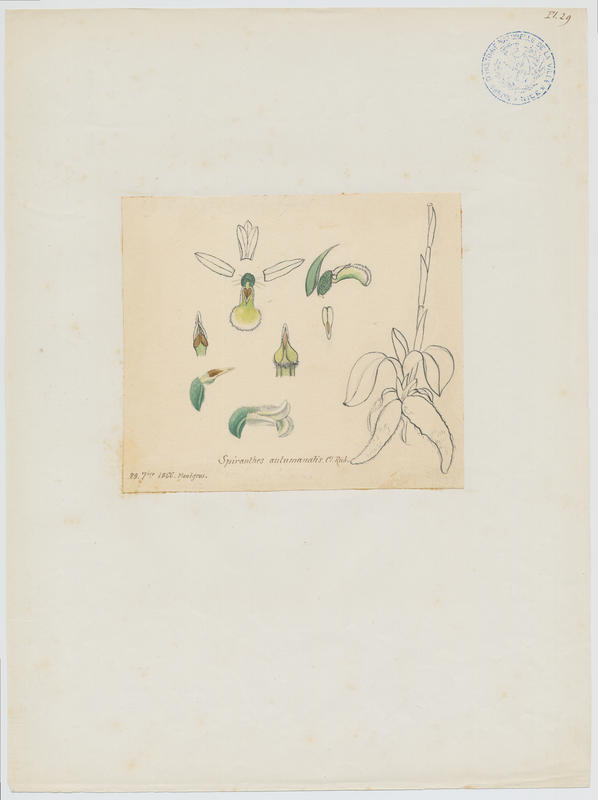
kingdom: Plantae
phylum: Tracheophyta
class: Liliopsida
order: Asparagales
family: Orchidaceae
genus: Spiranthes
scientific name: Spiranthes spiralis
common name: Autumn lady's-tresses
